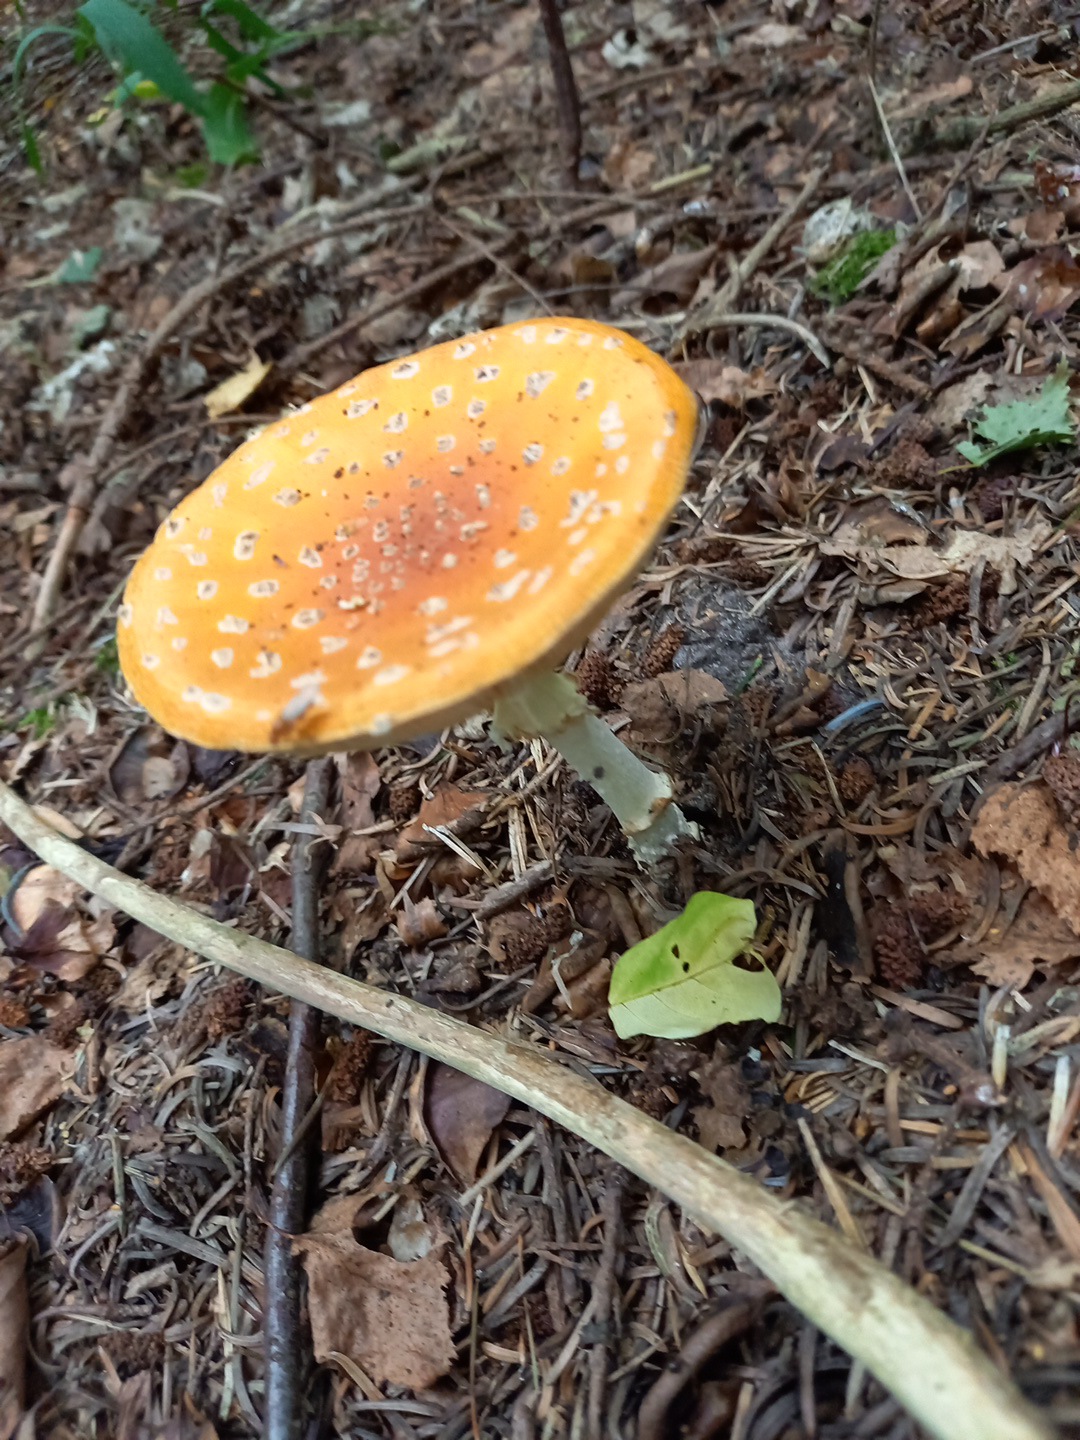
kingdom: Fungi
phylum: Basidiomycota
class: Agaricomycetes
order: Agaricales
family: Amanitaceae
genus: Amanita
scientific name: Amanita muscaria
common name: rød fluesvamp
